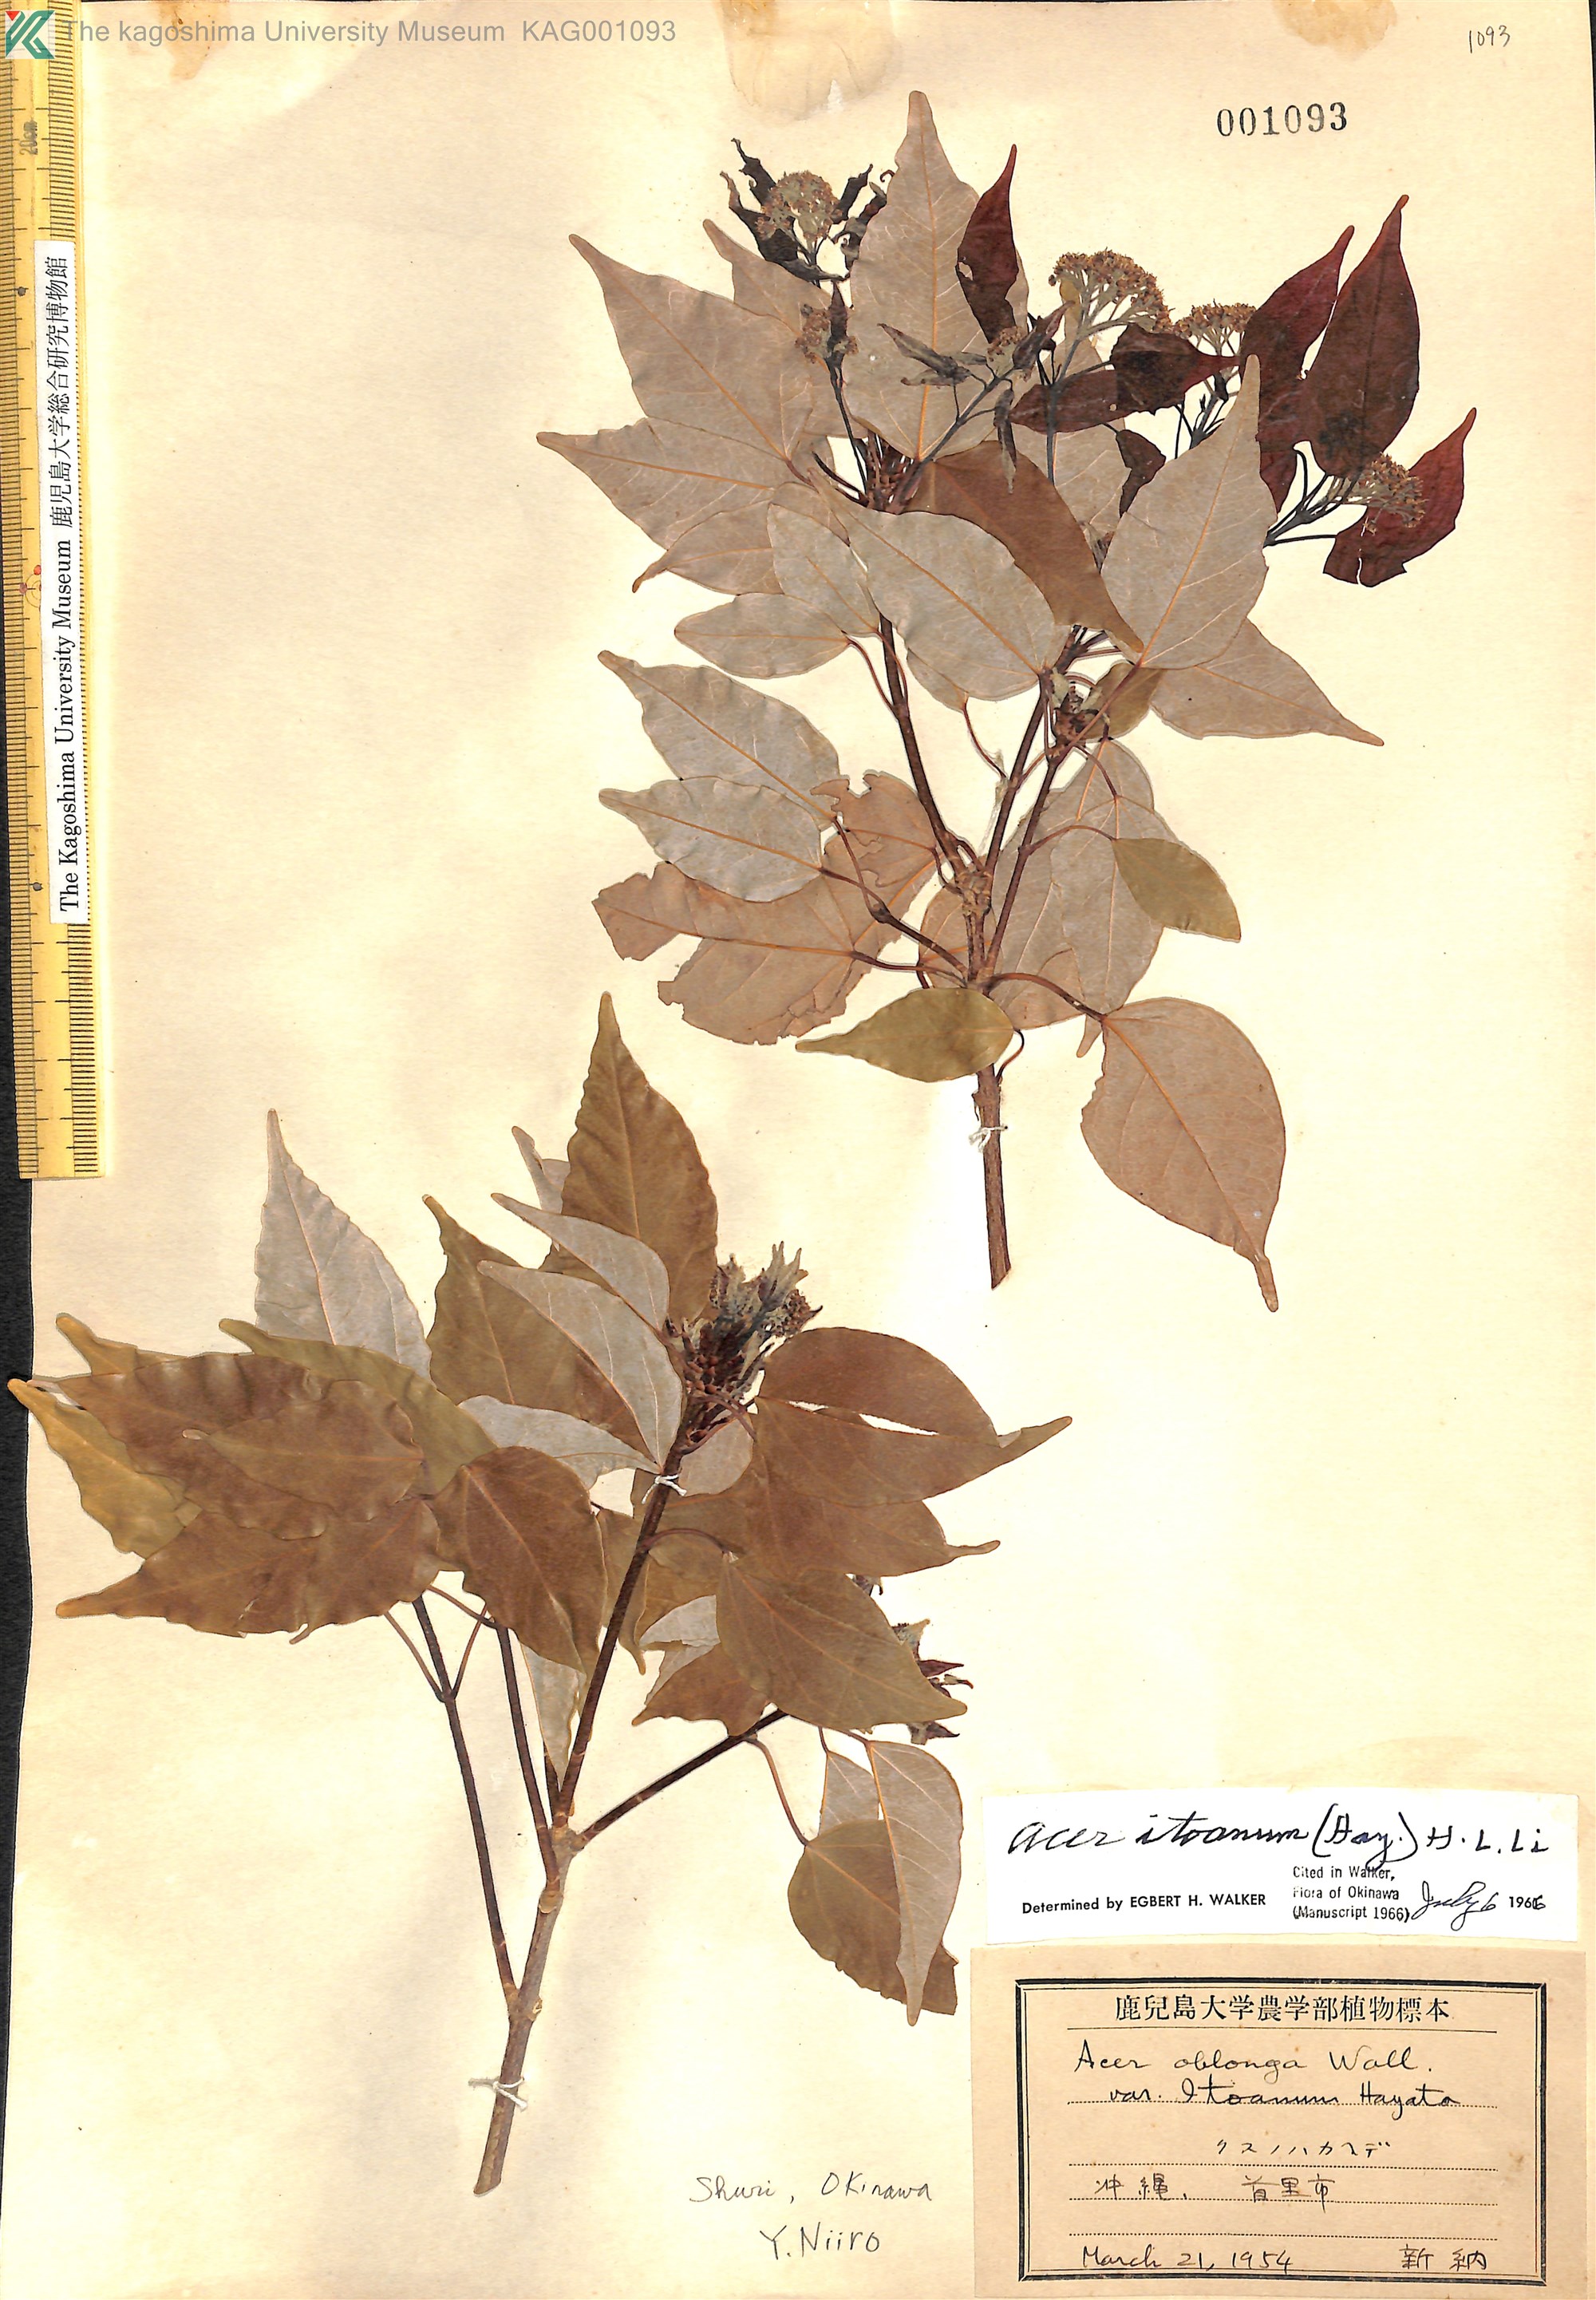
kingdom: Plantae
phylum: Tracheophyta
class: Magnoliopsida
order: Sapindales
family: Sapindaceae
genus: Acer
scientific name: Acer oblongum
